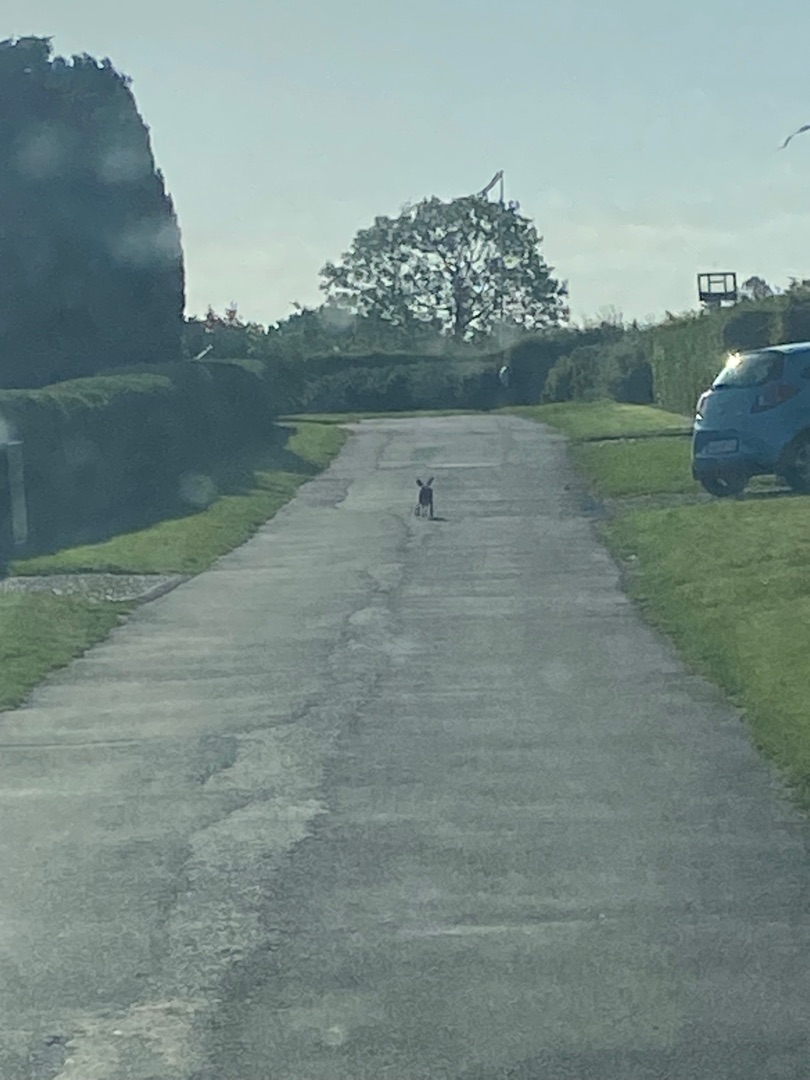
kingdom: Animalia
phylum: Chordata
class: Mammalia
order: Lagomorpha
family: Leporidae
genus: Lepus
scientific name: Lepus europaeus
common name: Hare
